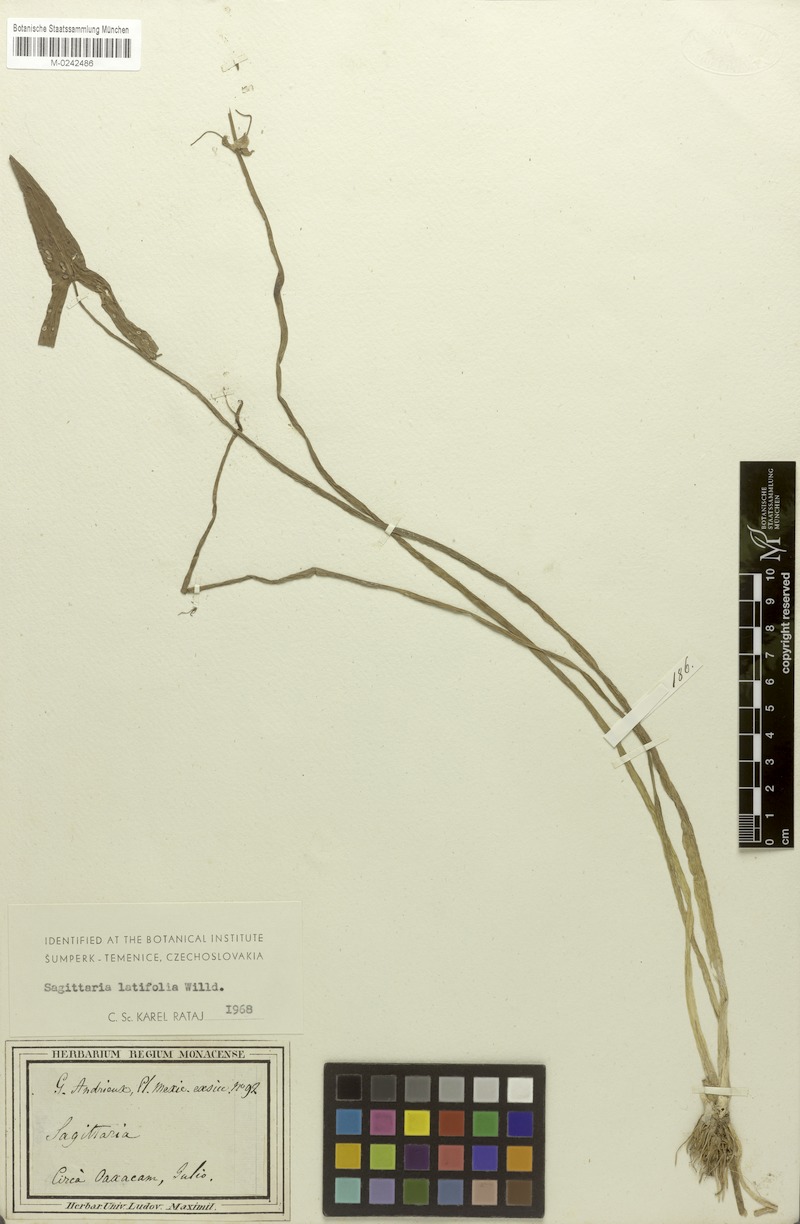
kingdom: Plantae
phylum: Tracheophyta
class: Liliopsida
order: Alismatales
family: Alismataceae
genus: Sagittaria
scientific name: Sagittaria latifolia
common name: Duck-potato
